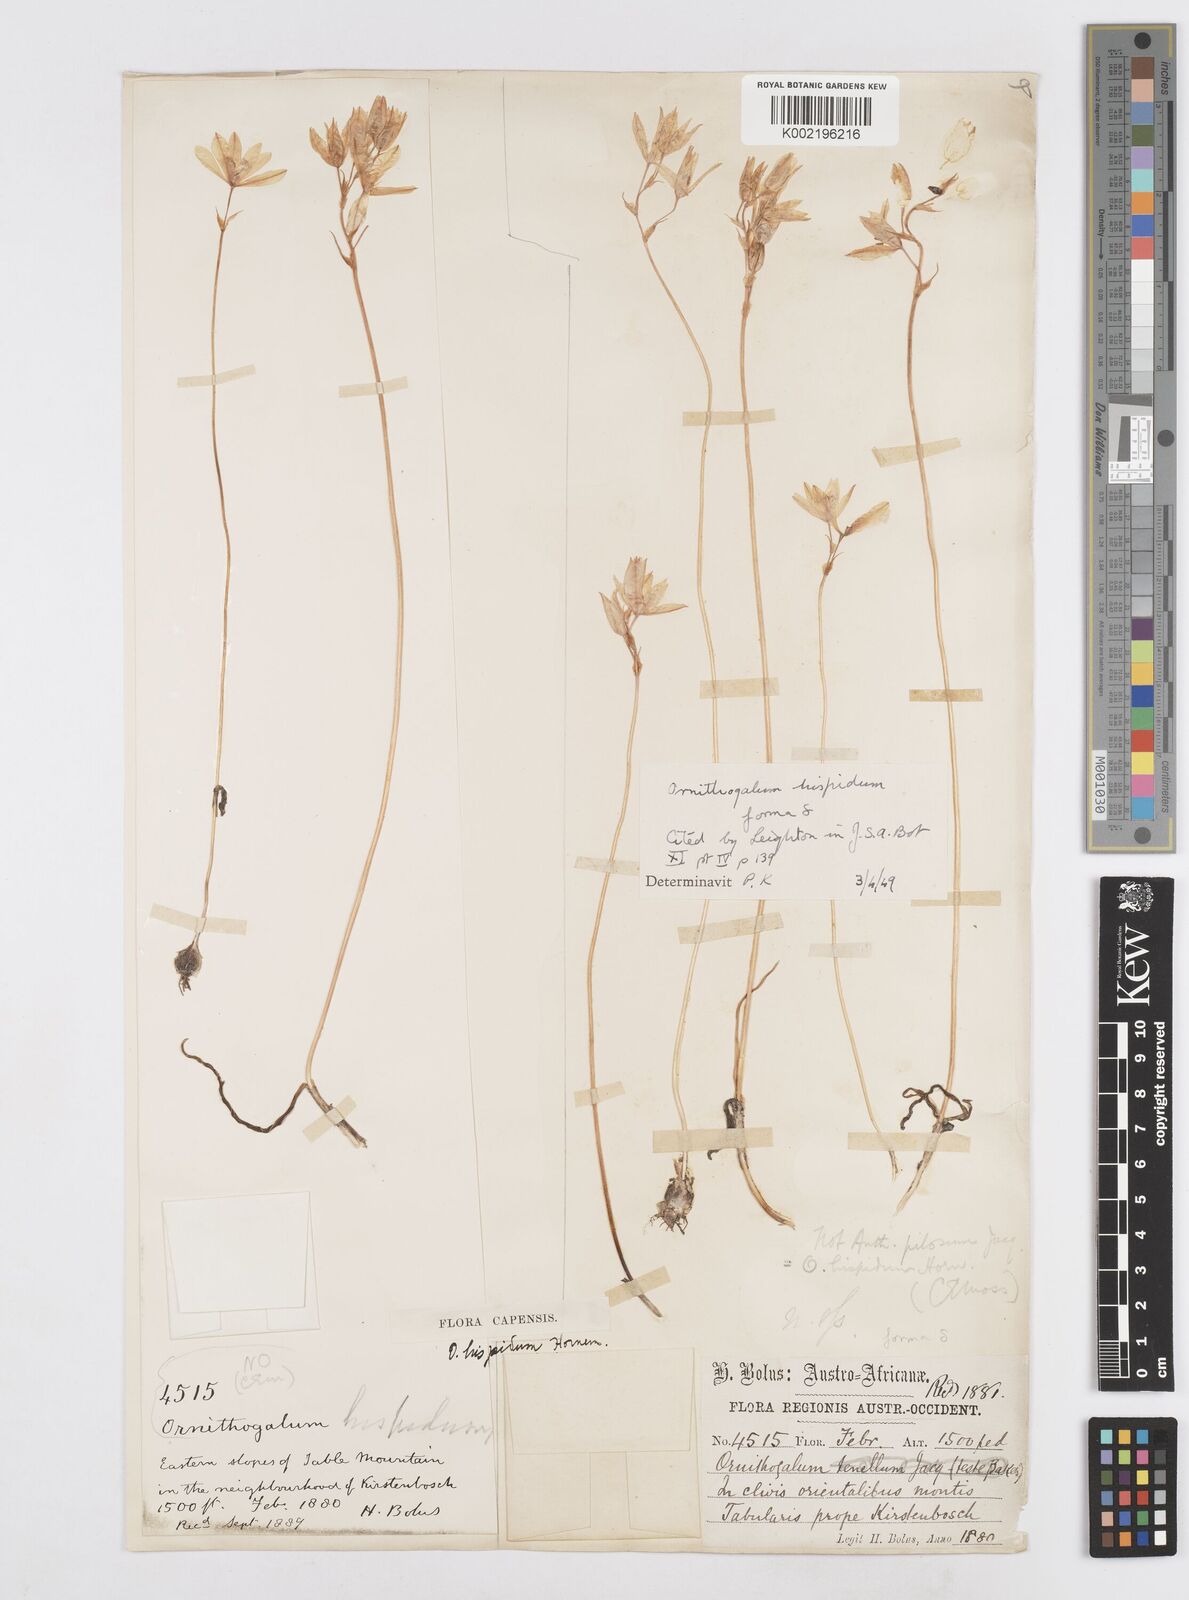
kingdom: Plantae
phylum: Tracheophyta
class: Liliopsida
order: Asparagales
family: Asparagaceae
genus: Ornithogalum
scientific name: Ornithogalum hispidum
